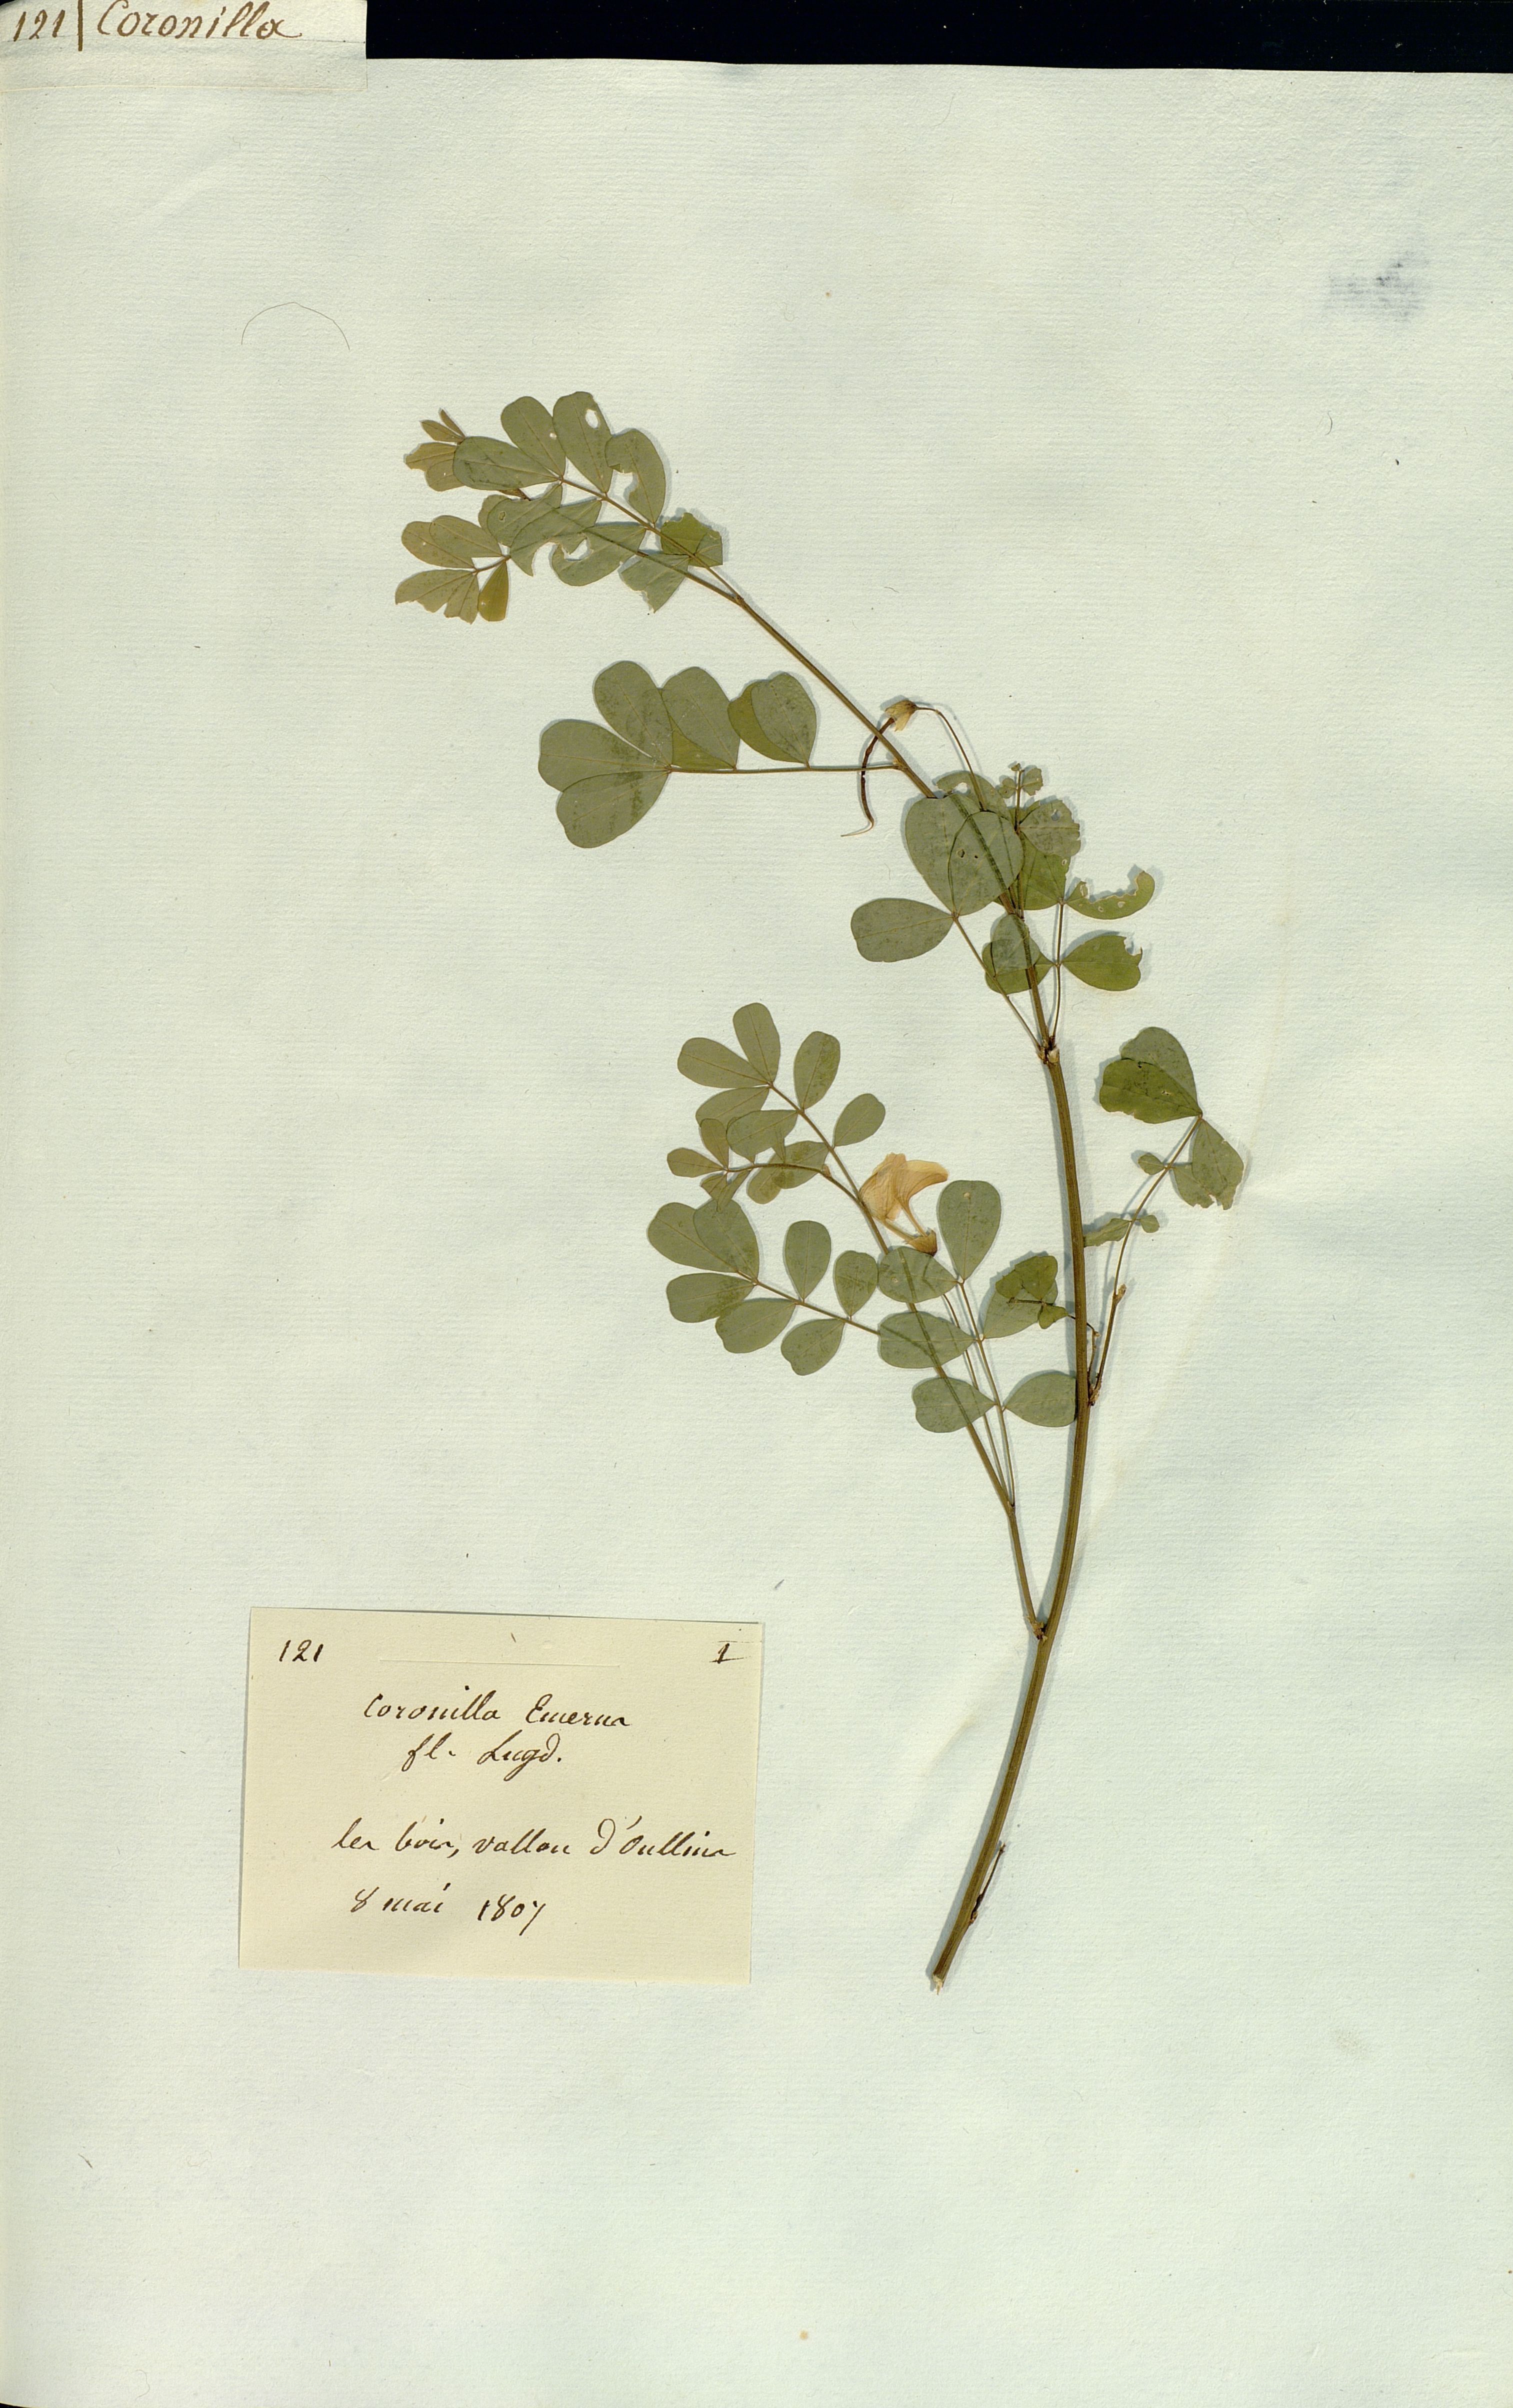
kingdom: Plantae
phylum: Tracheophyta
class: Magnoliopsida
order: Fabales
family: Fabaceae
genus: Coronilla
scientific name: Coronilla emerus
